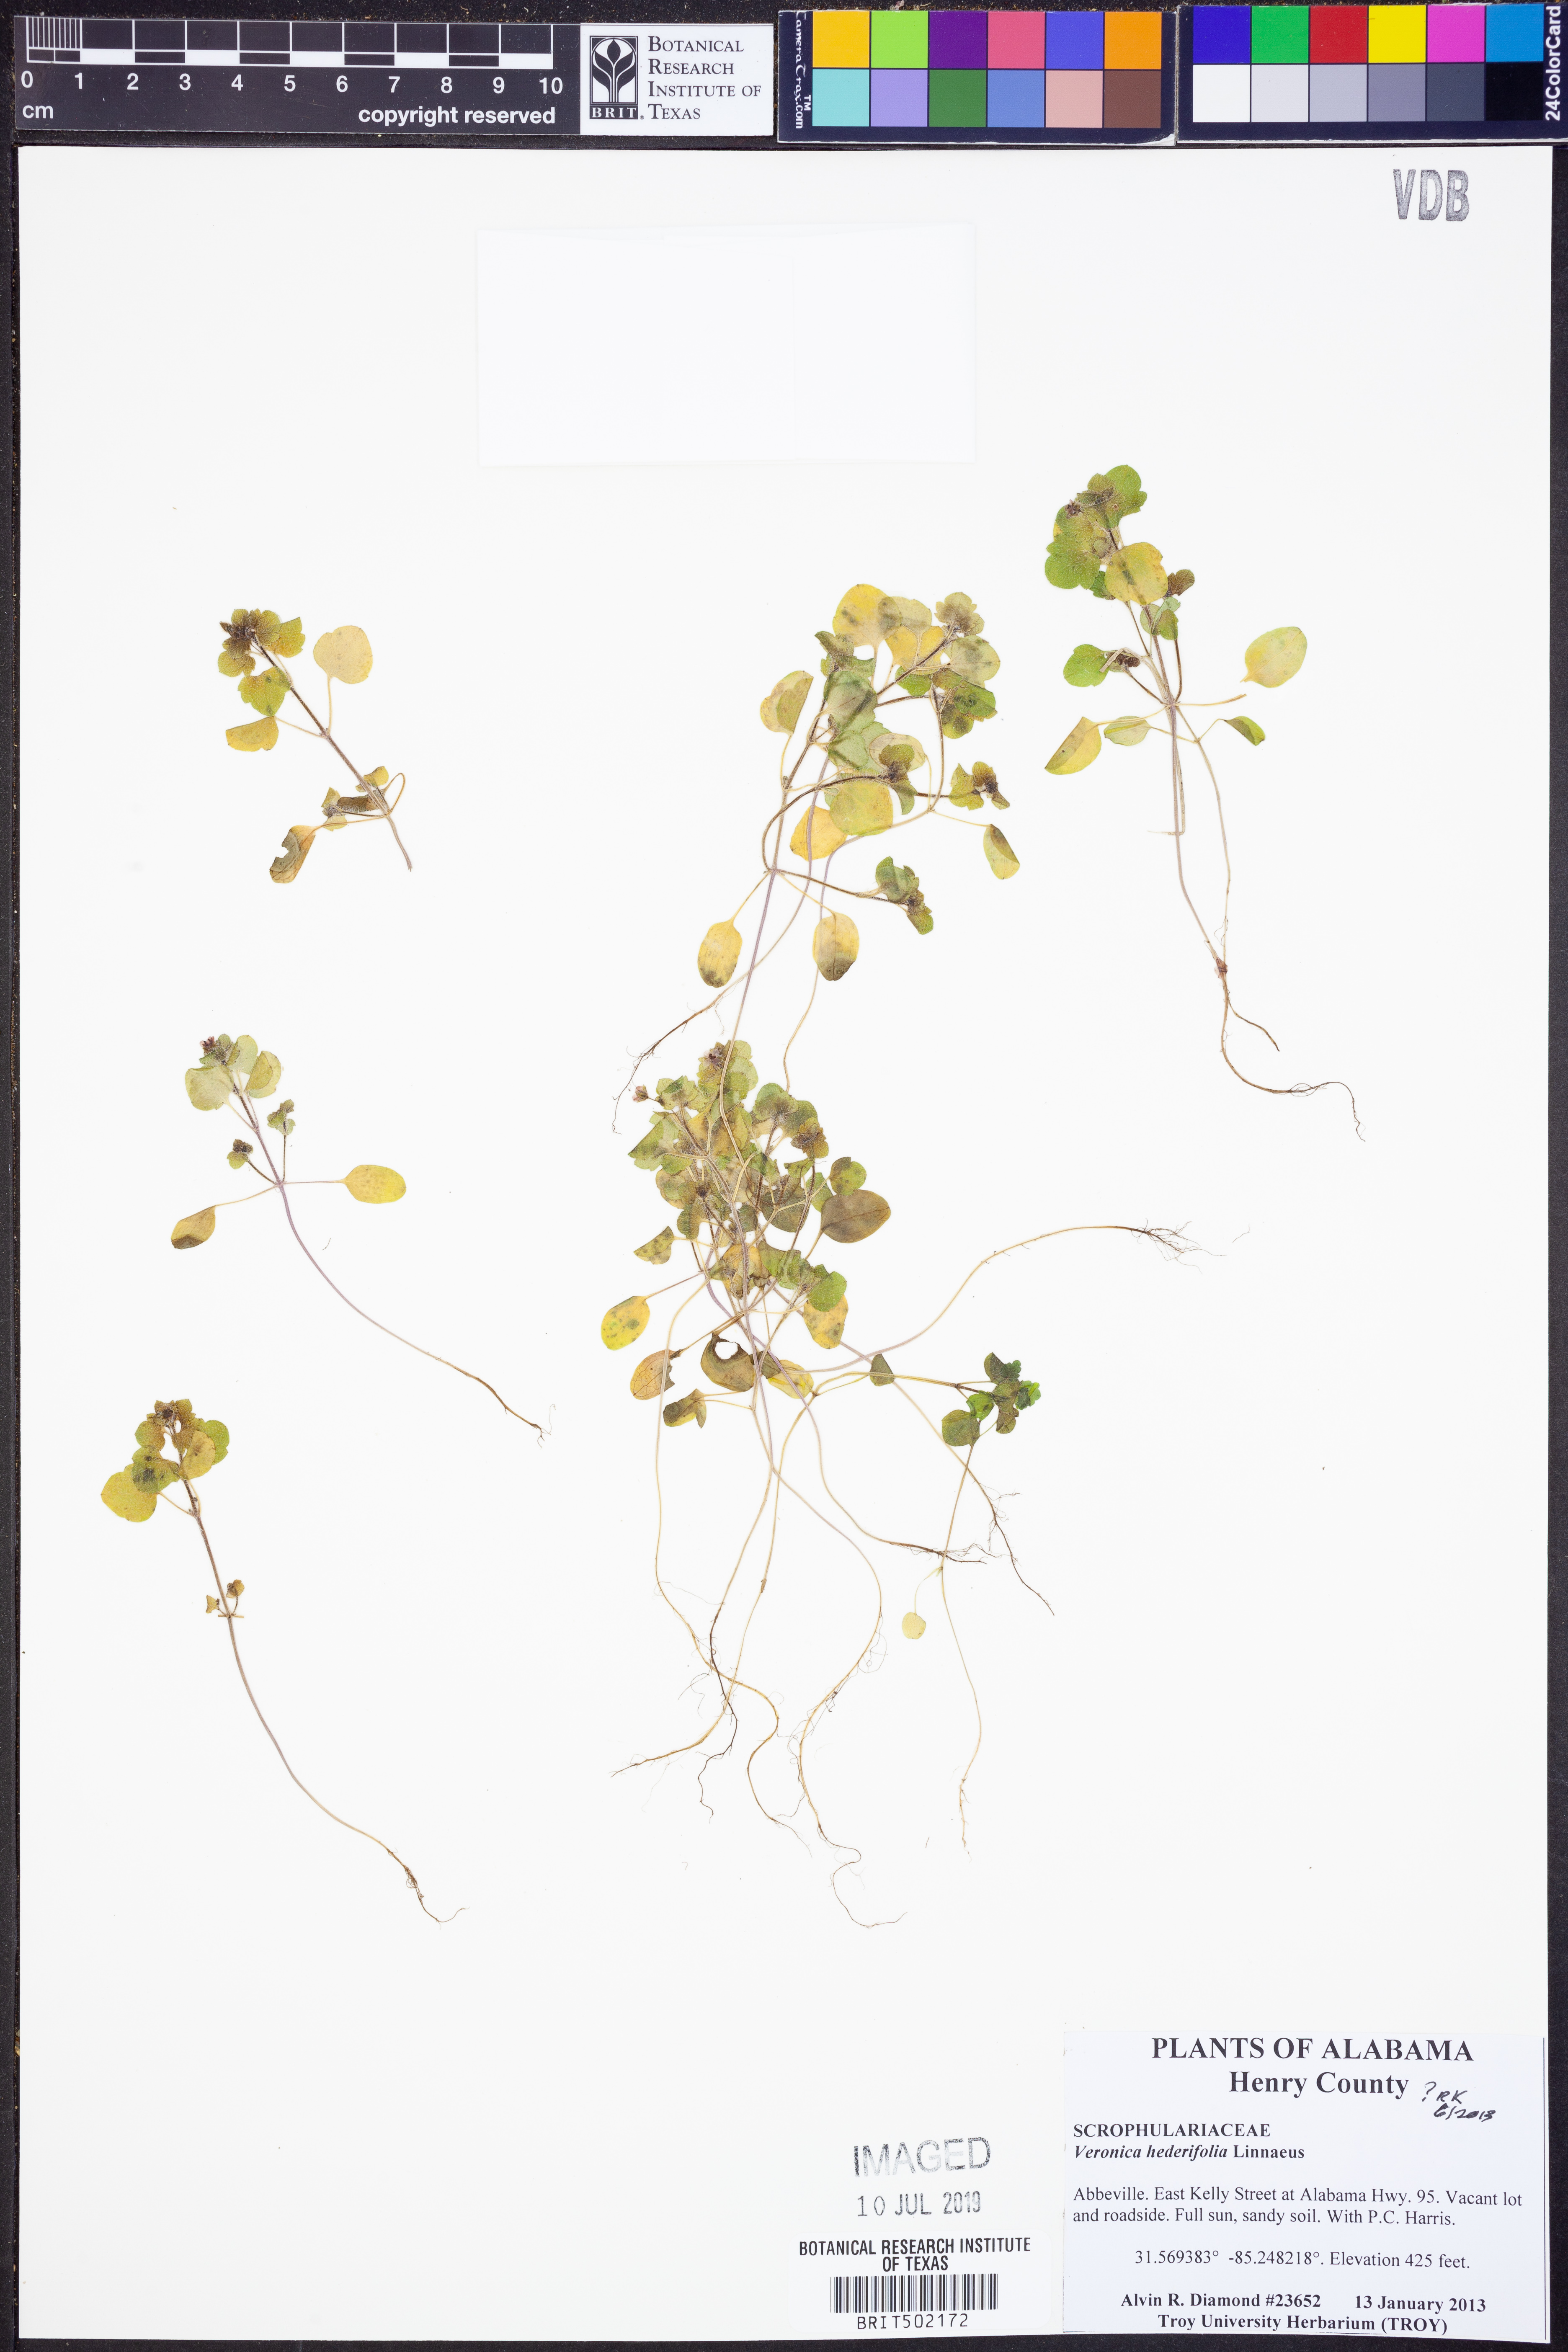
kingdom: Plantae
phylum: Tracheophyta
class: Magnoliopsida
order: Lamiales
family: Plantaginaceae
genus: Veronica
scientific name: Veronica hederifolia
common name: Ivy-leaved speedwell
